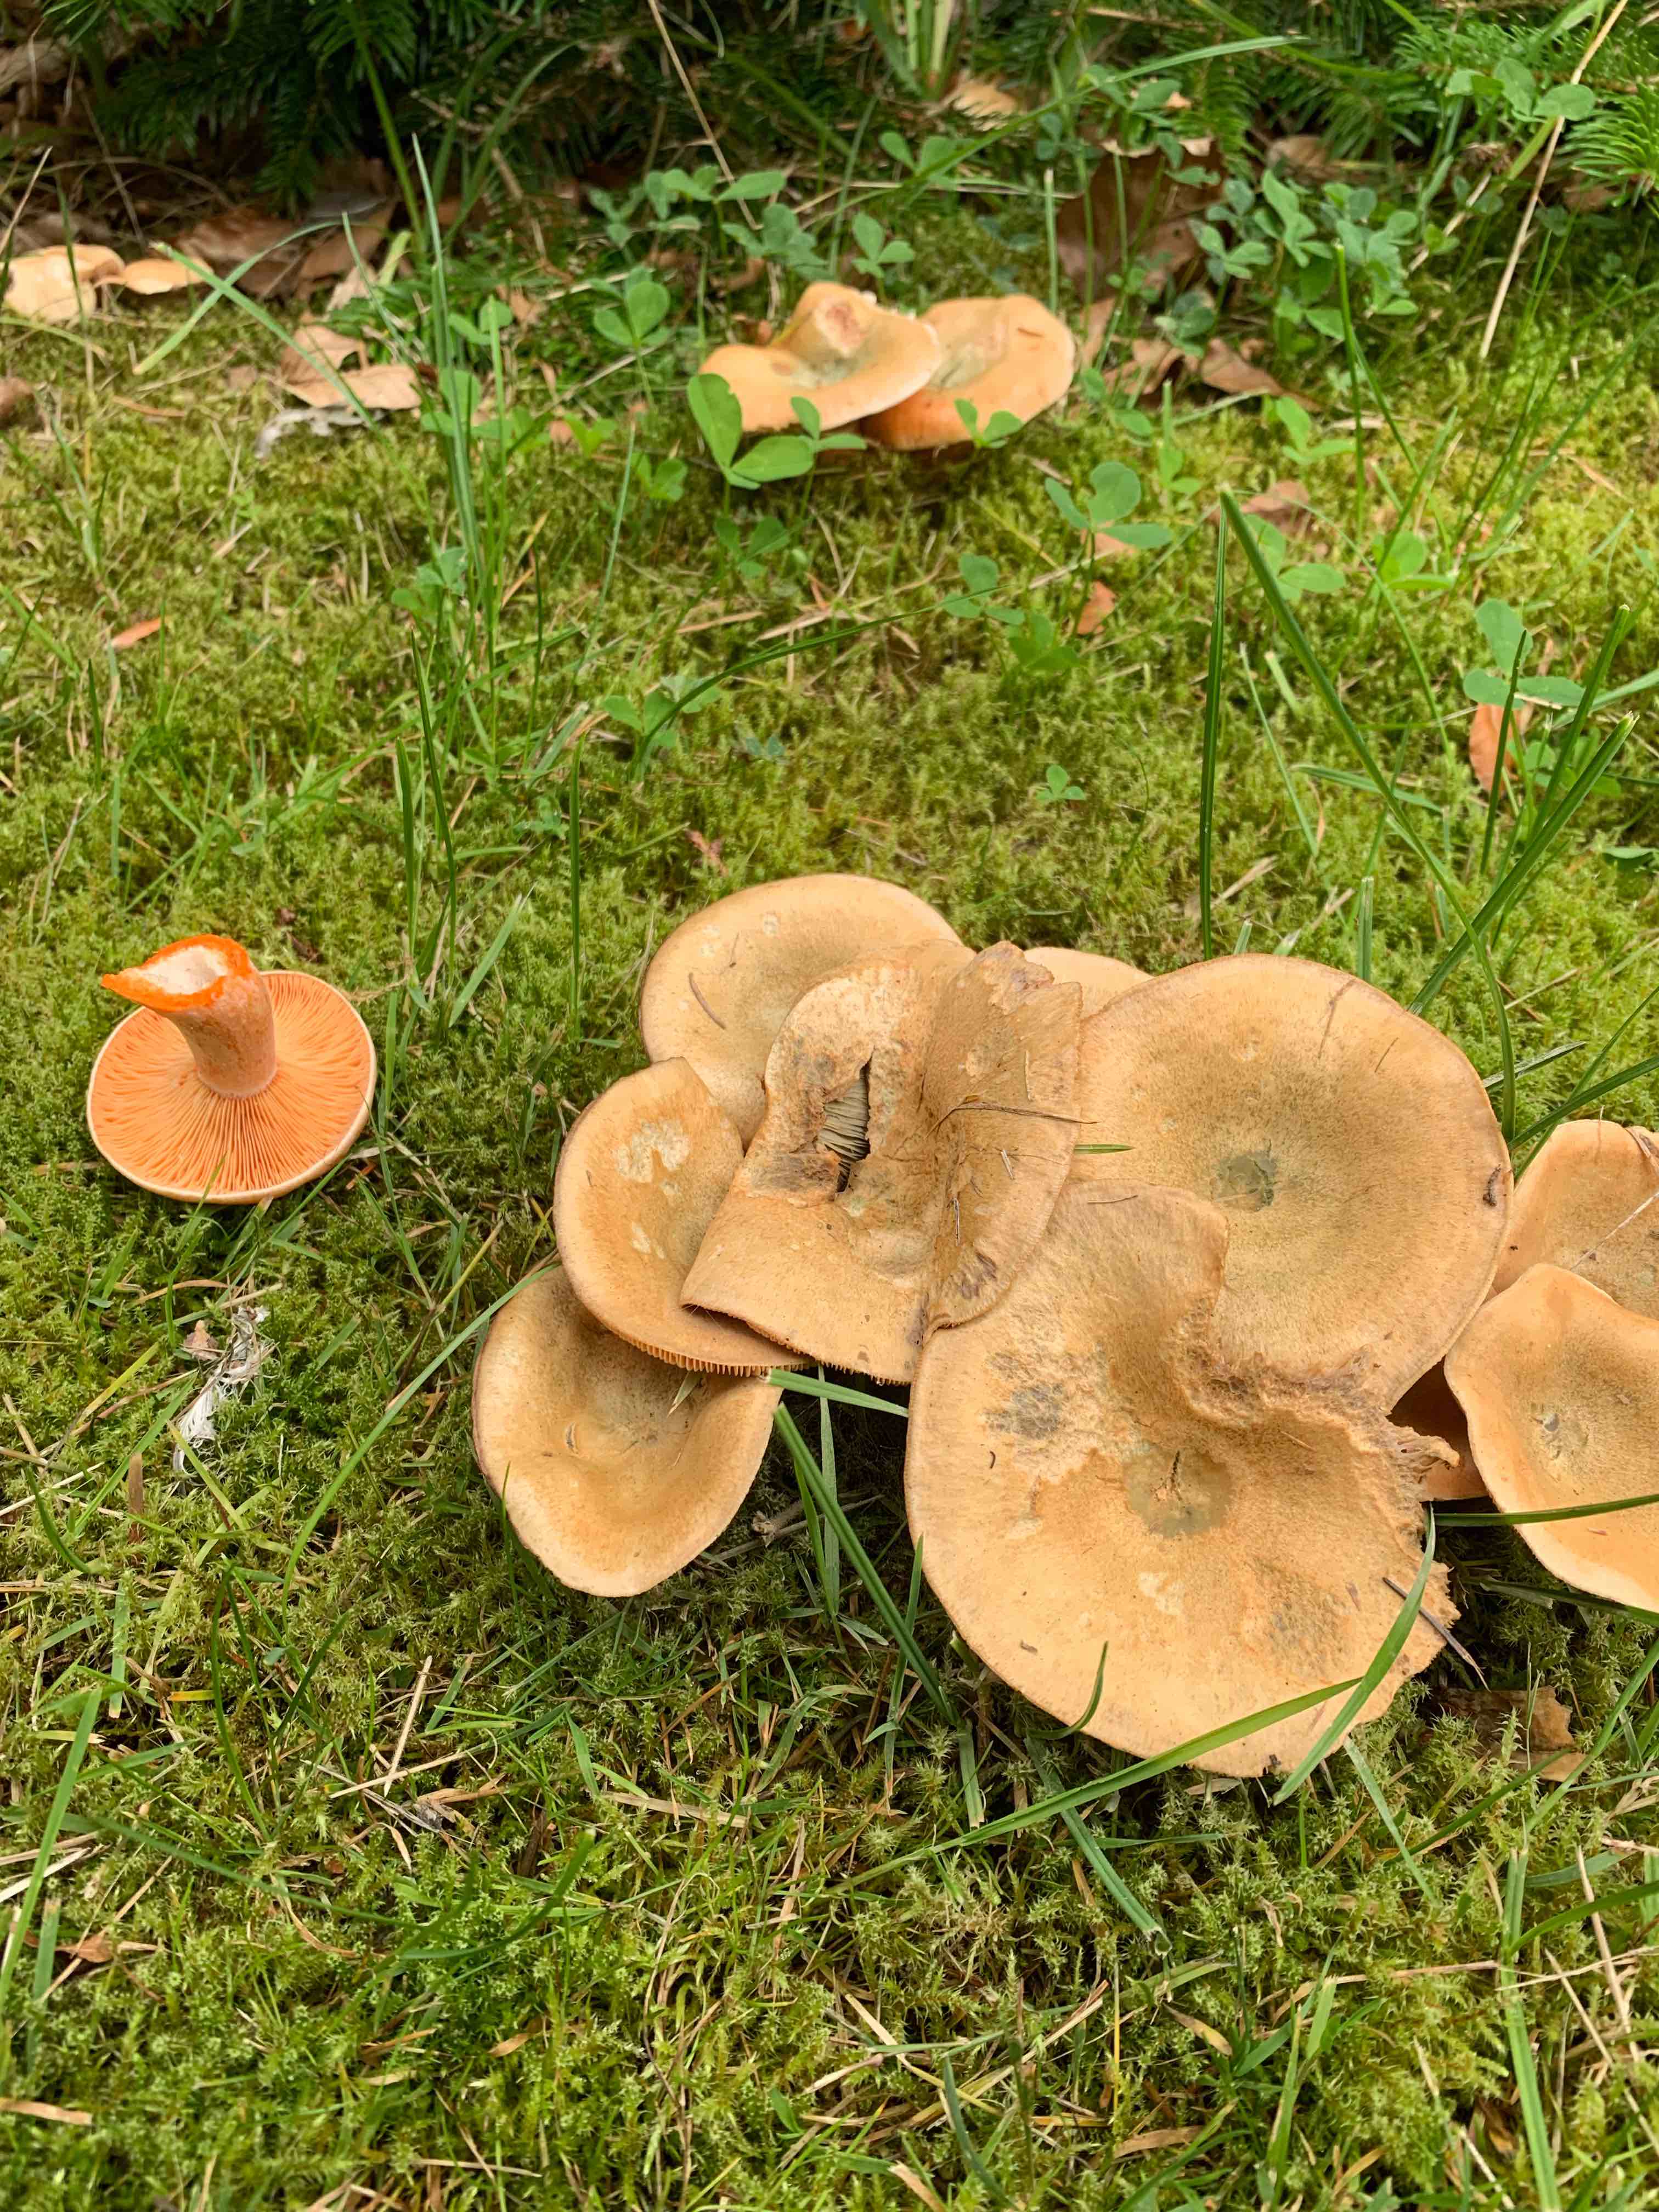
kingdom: Fungi
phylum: Basidiomycota
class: Agaricomycetes
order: Russulales
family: Russulaceae
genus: Lactarius
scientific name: Lactarius deterrimus
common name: gran-mælkehat
